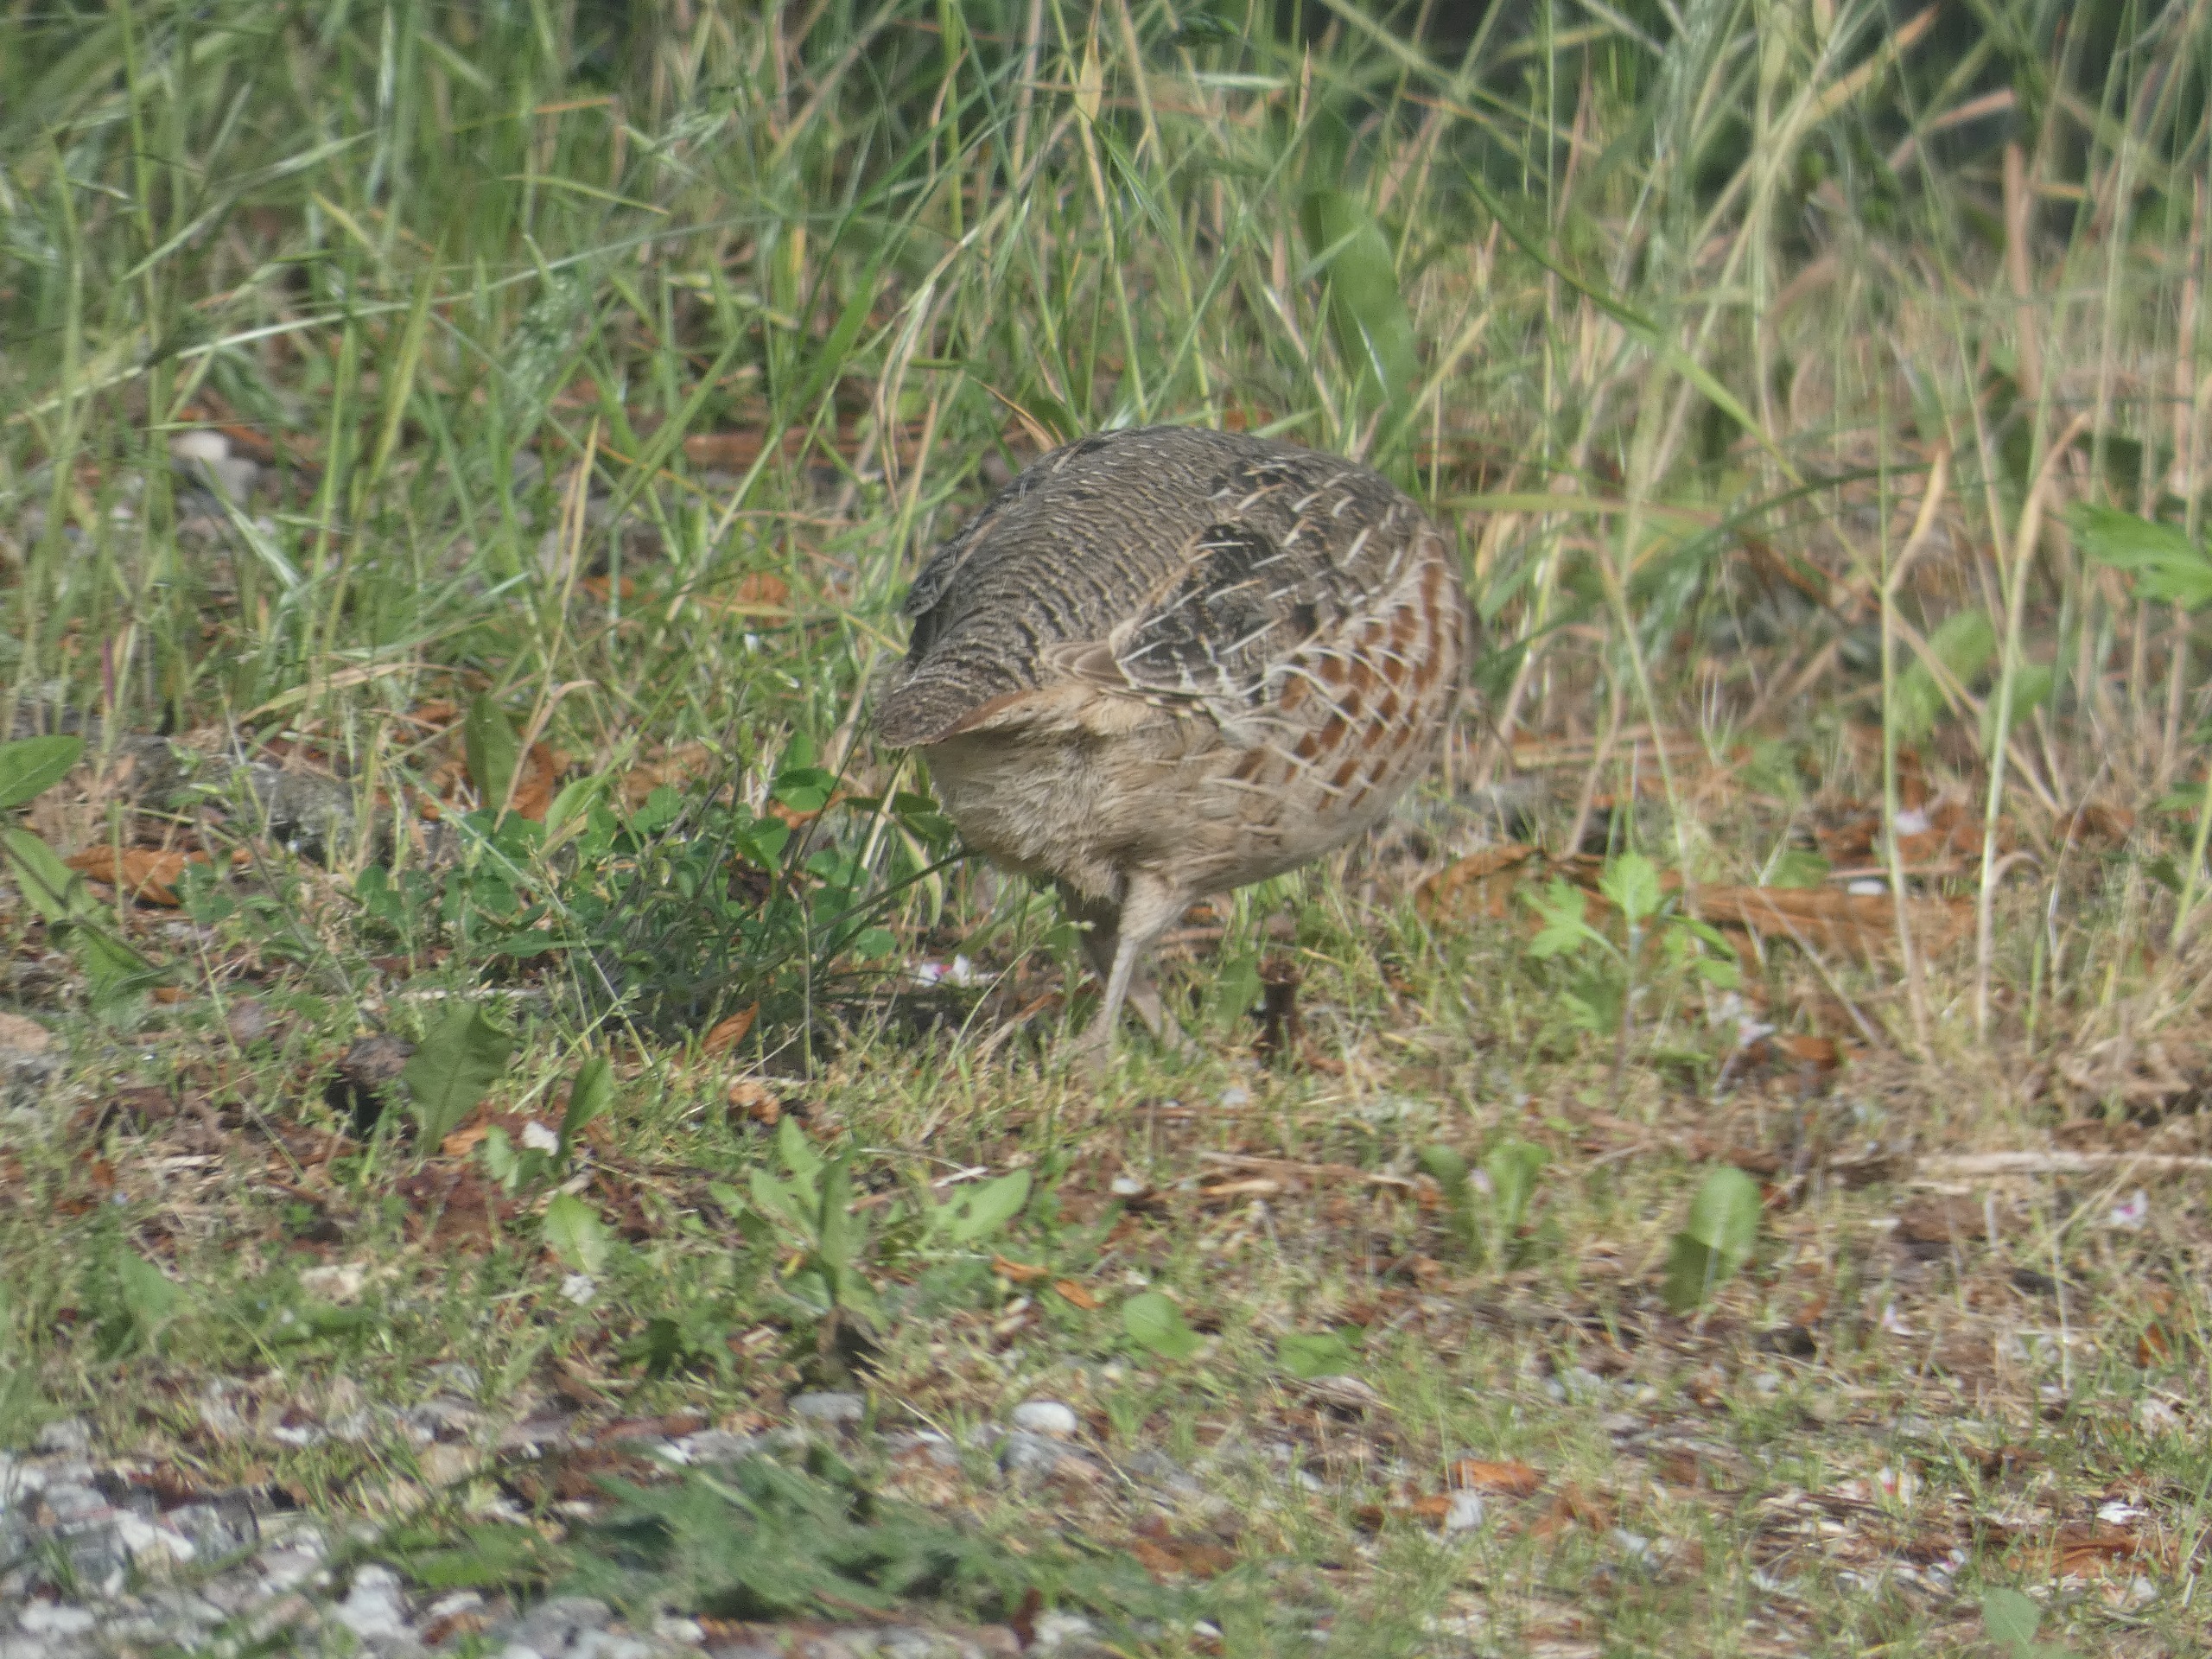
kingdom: Animalia
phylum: Chordata
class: Aves
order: Galliformes
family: Phasianidae
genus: Perdix
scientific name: Perdix perdix
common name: Agerhøne
